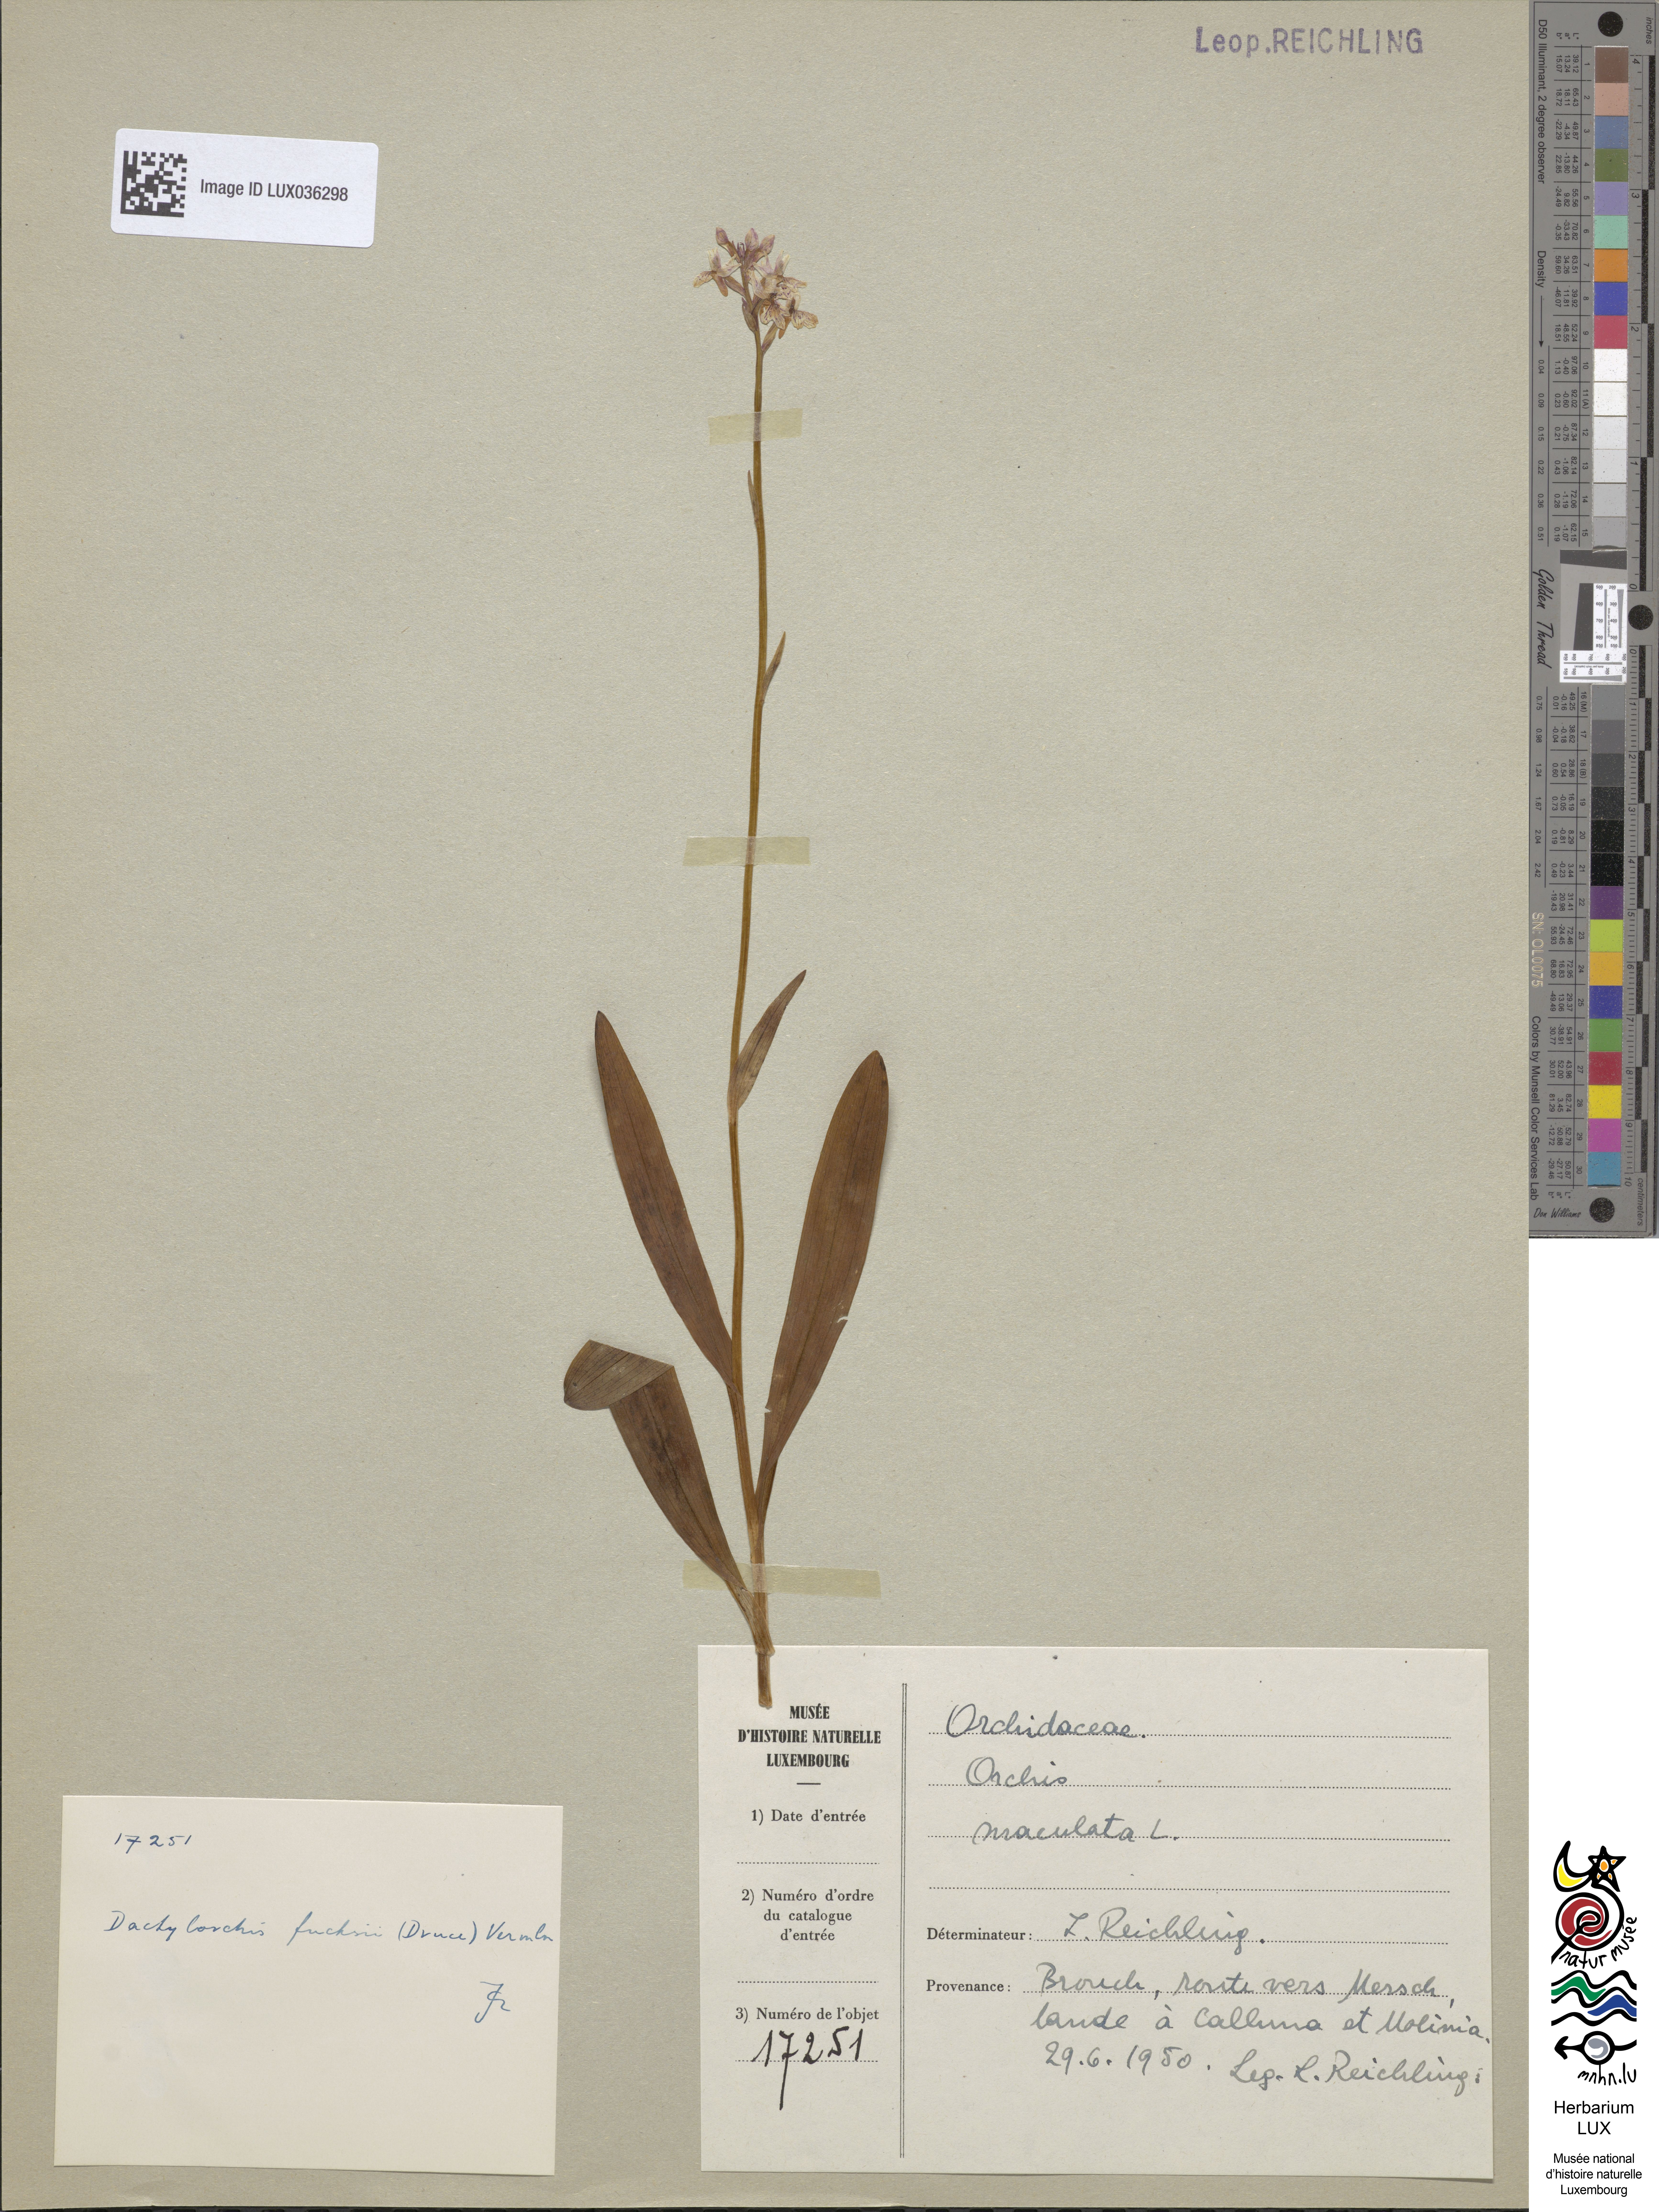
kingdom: Plantae
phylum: Tracheophyta
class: Liliopsida
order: Asparagales
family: Orchidaceae
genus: Dactylorhiza
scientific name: Dactylorhiza maculata
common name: Heath spotted-orchid
